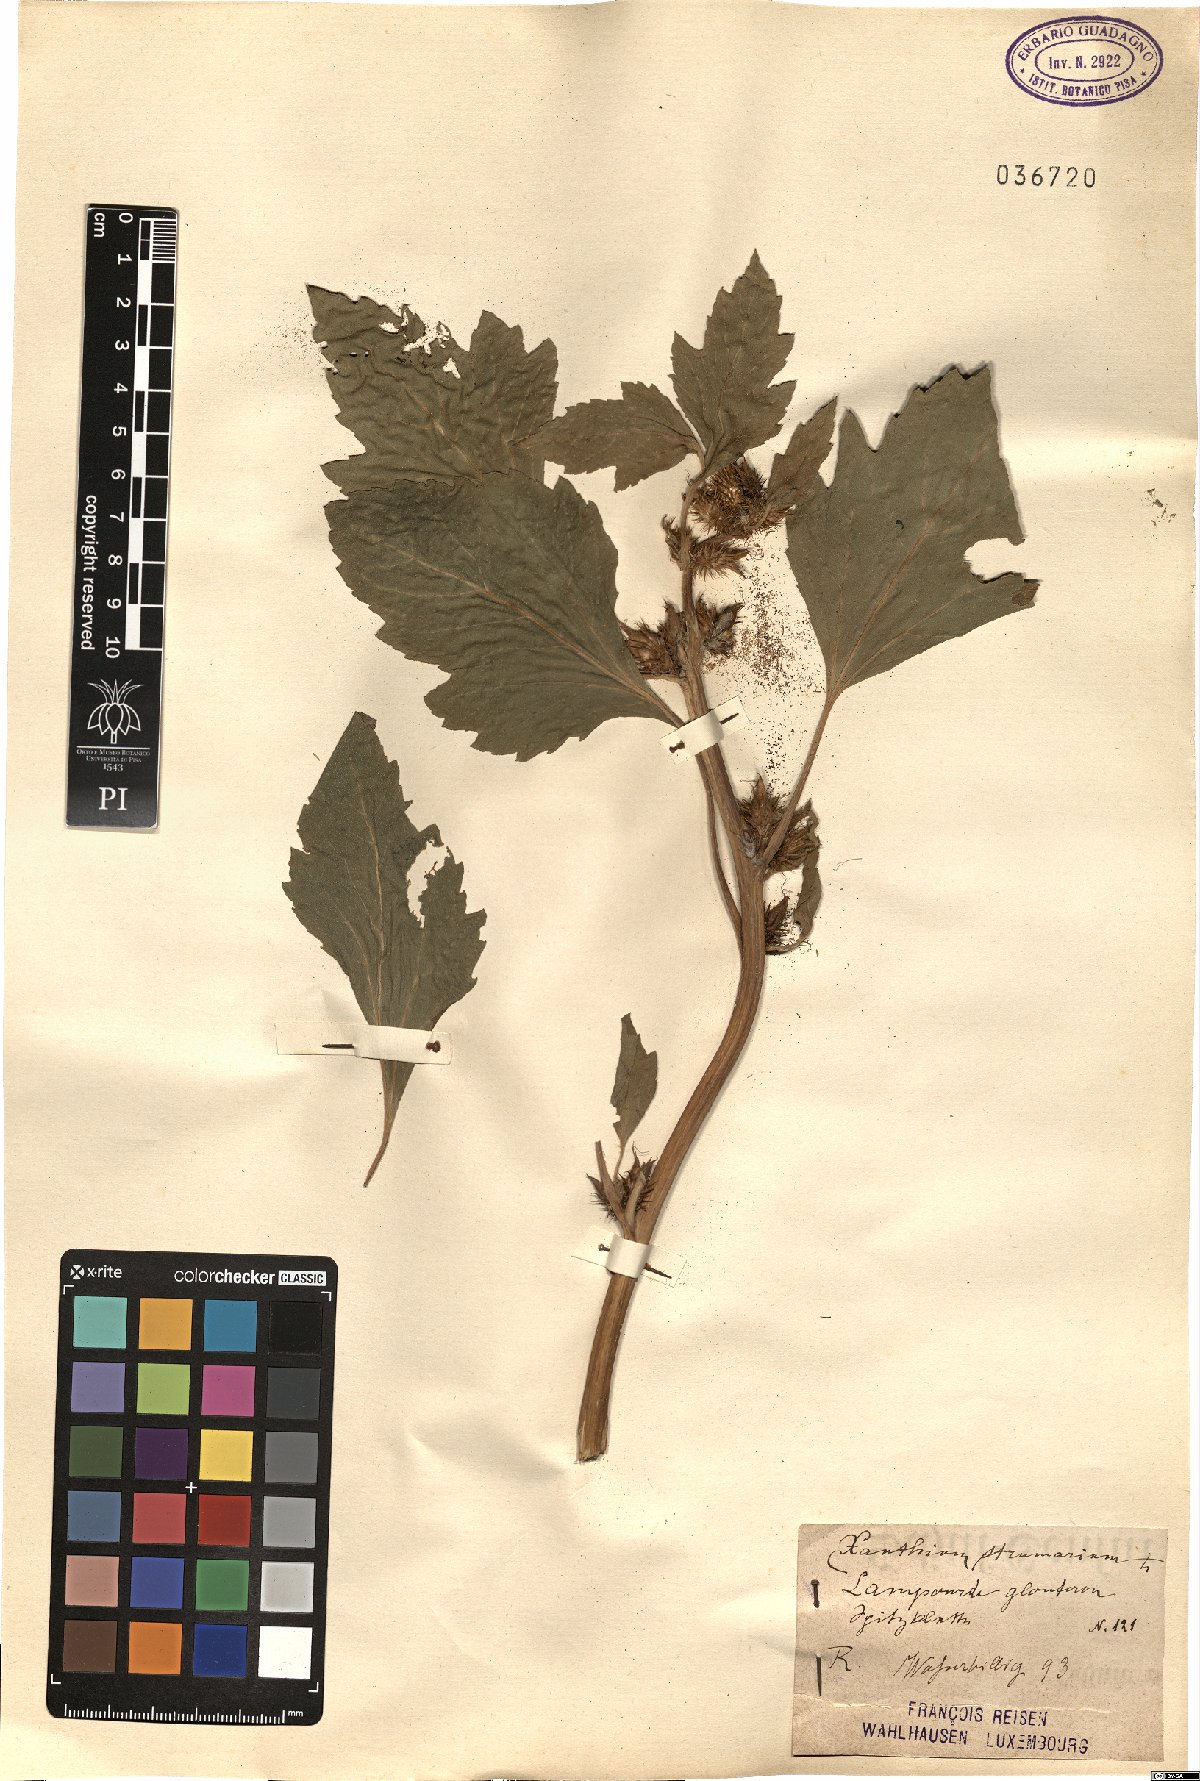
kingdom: Plantae
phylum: Tracheophyta
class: Magnoliopsida
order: Asterales
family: Asteraceae
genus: Xanthium
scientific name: Xanthium strumarium
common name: Rough cocklebur
